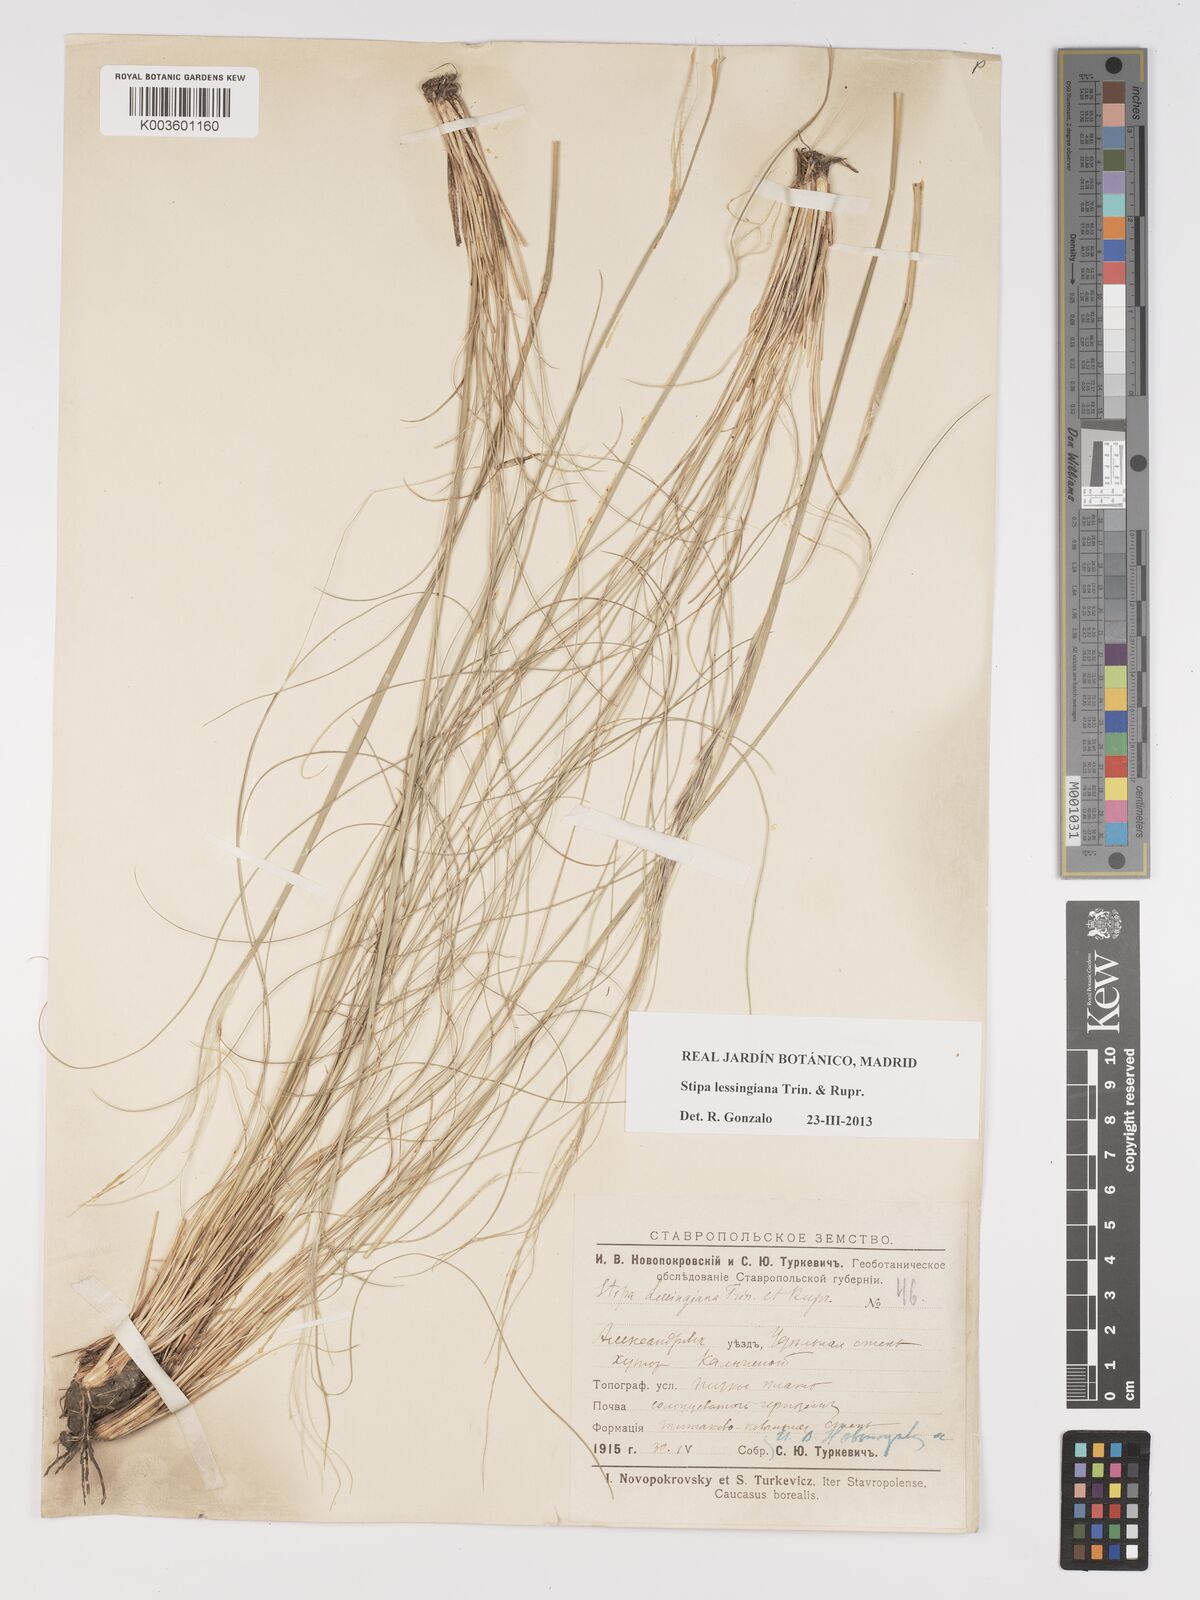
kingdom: Plantae
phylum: Tracheophyta
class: Liliopsida
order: Poales
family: Poaceae
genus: Stipa
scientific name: Stipa lessingiana
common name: Needle grass
